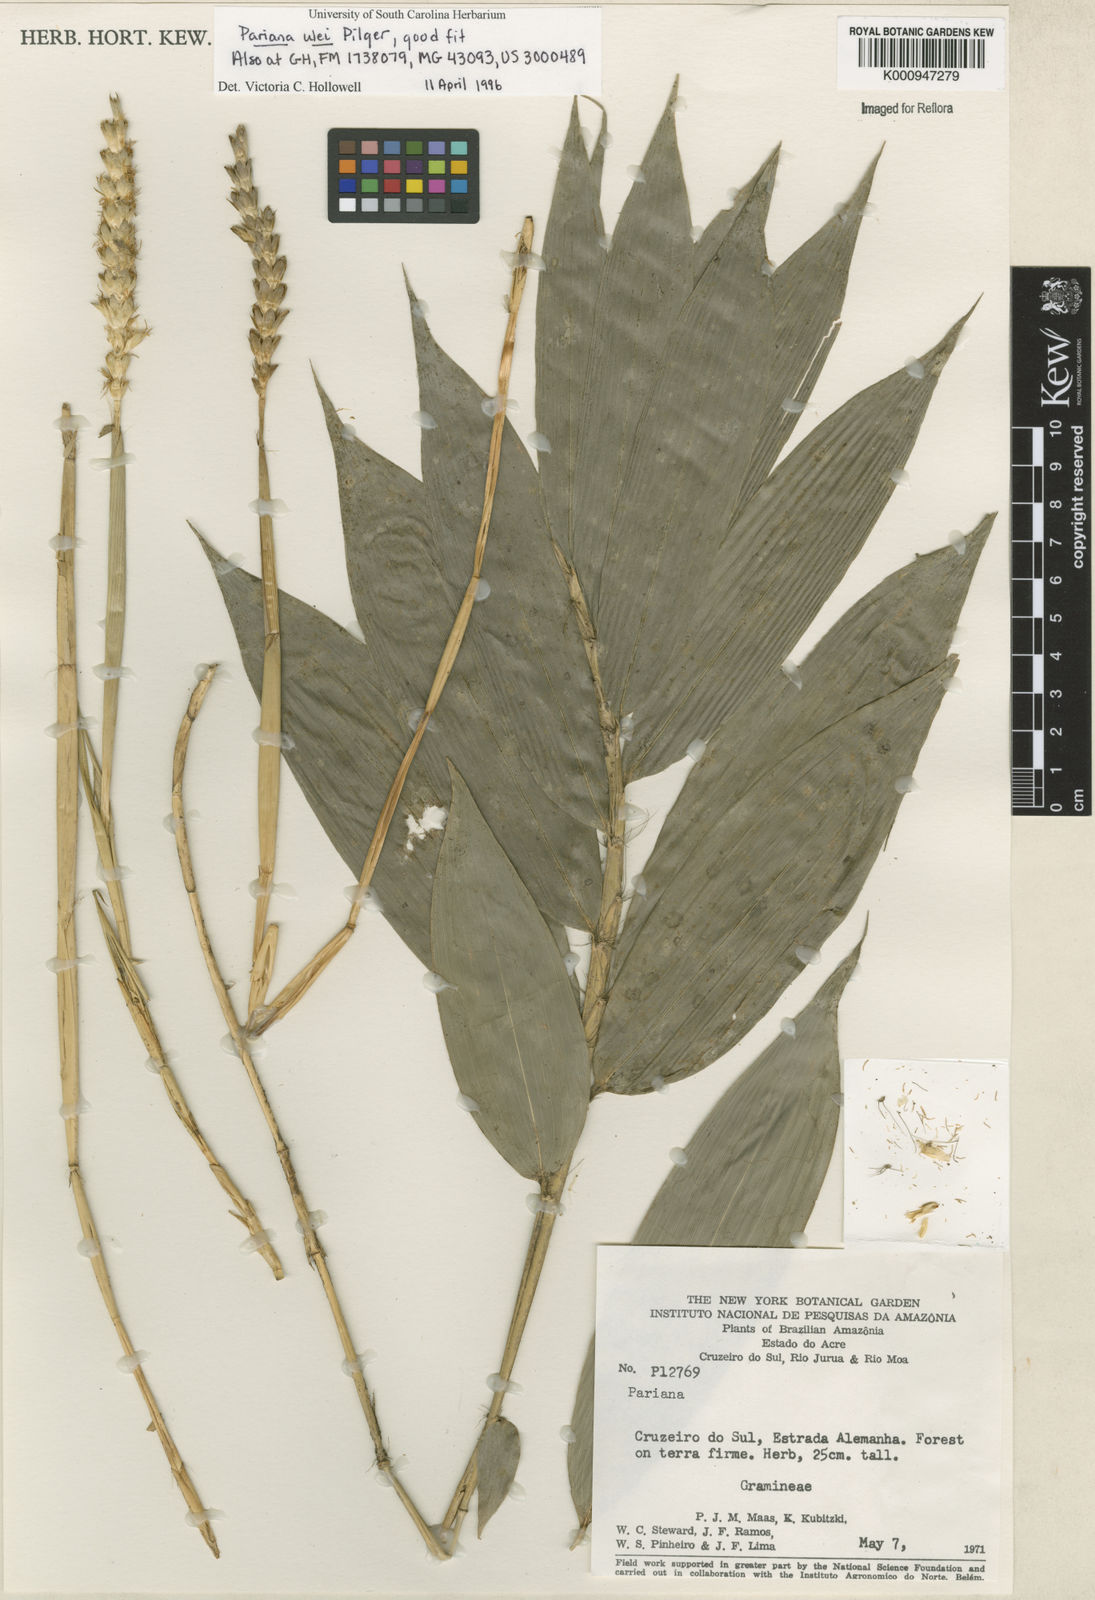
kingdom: Plantae
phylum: Tracheophyta
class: Liliopsida
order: Poales
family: Poaceae
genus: Pariana
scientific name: Pariana ulei
